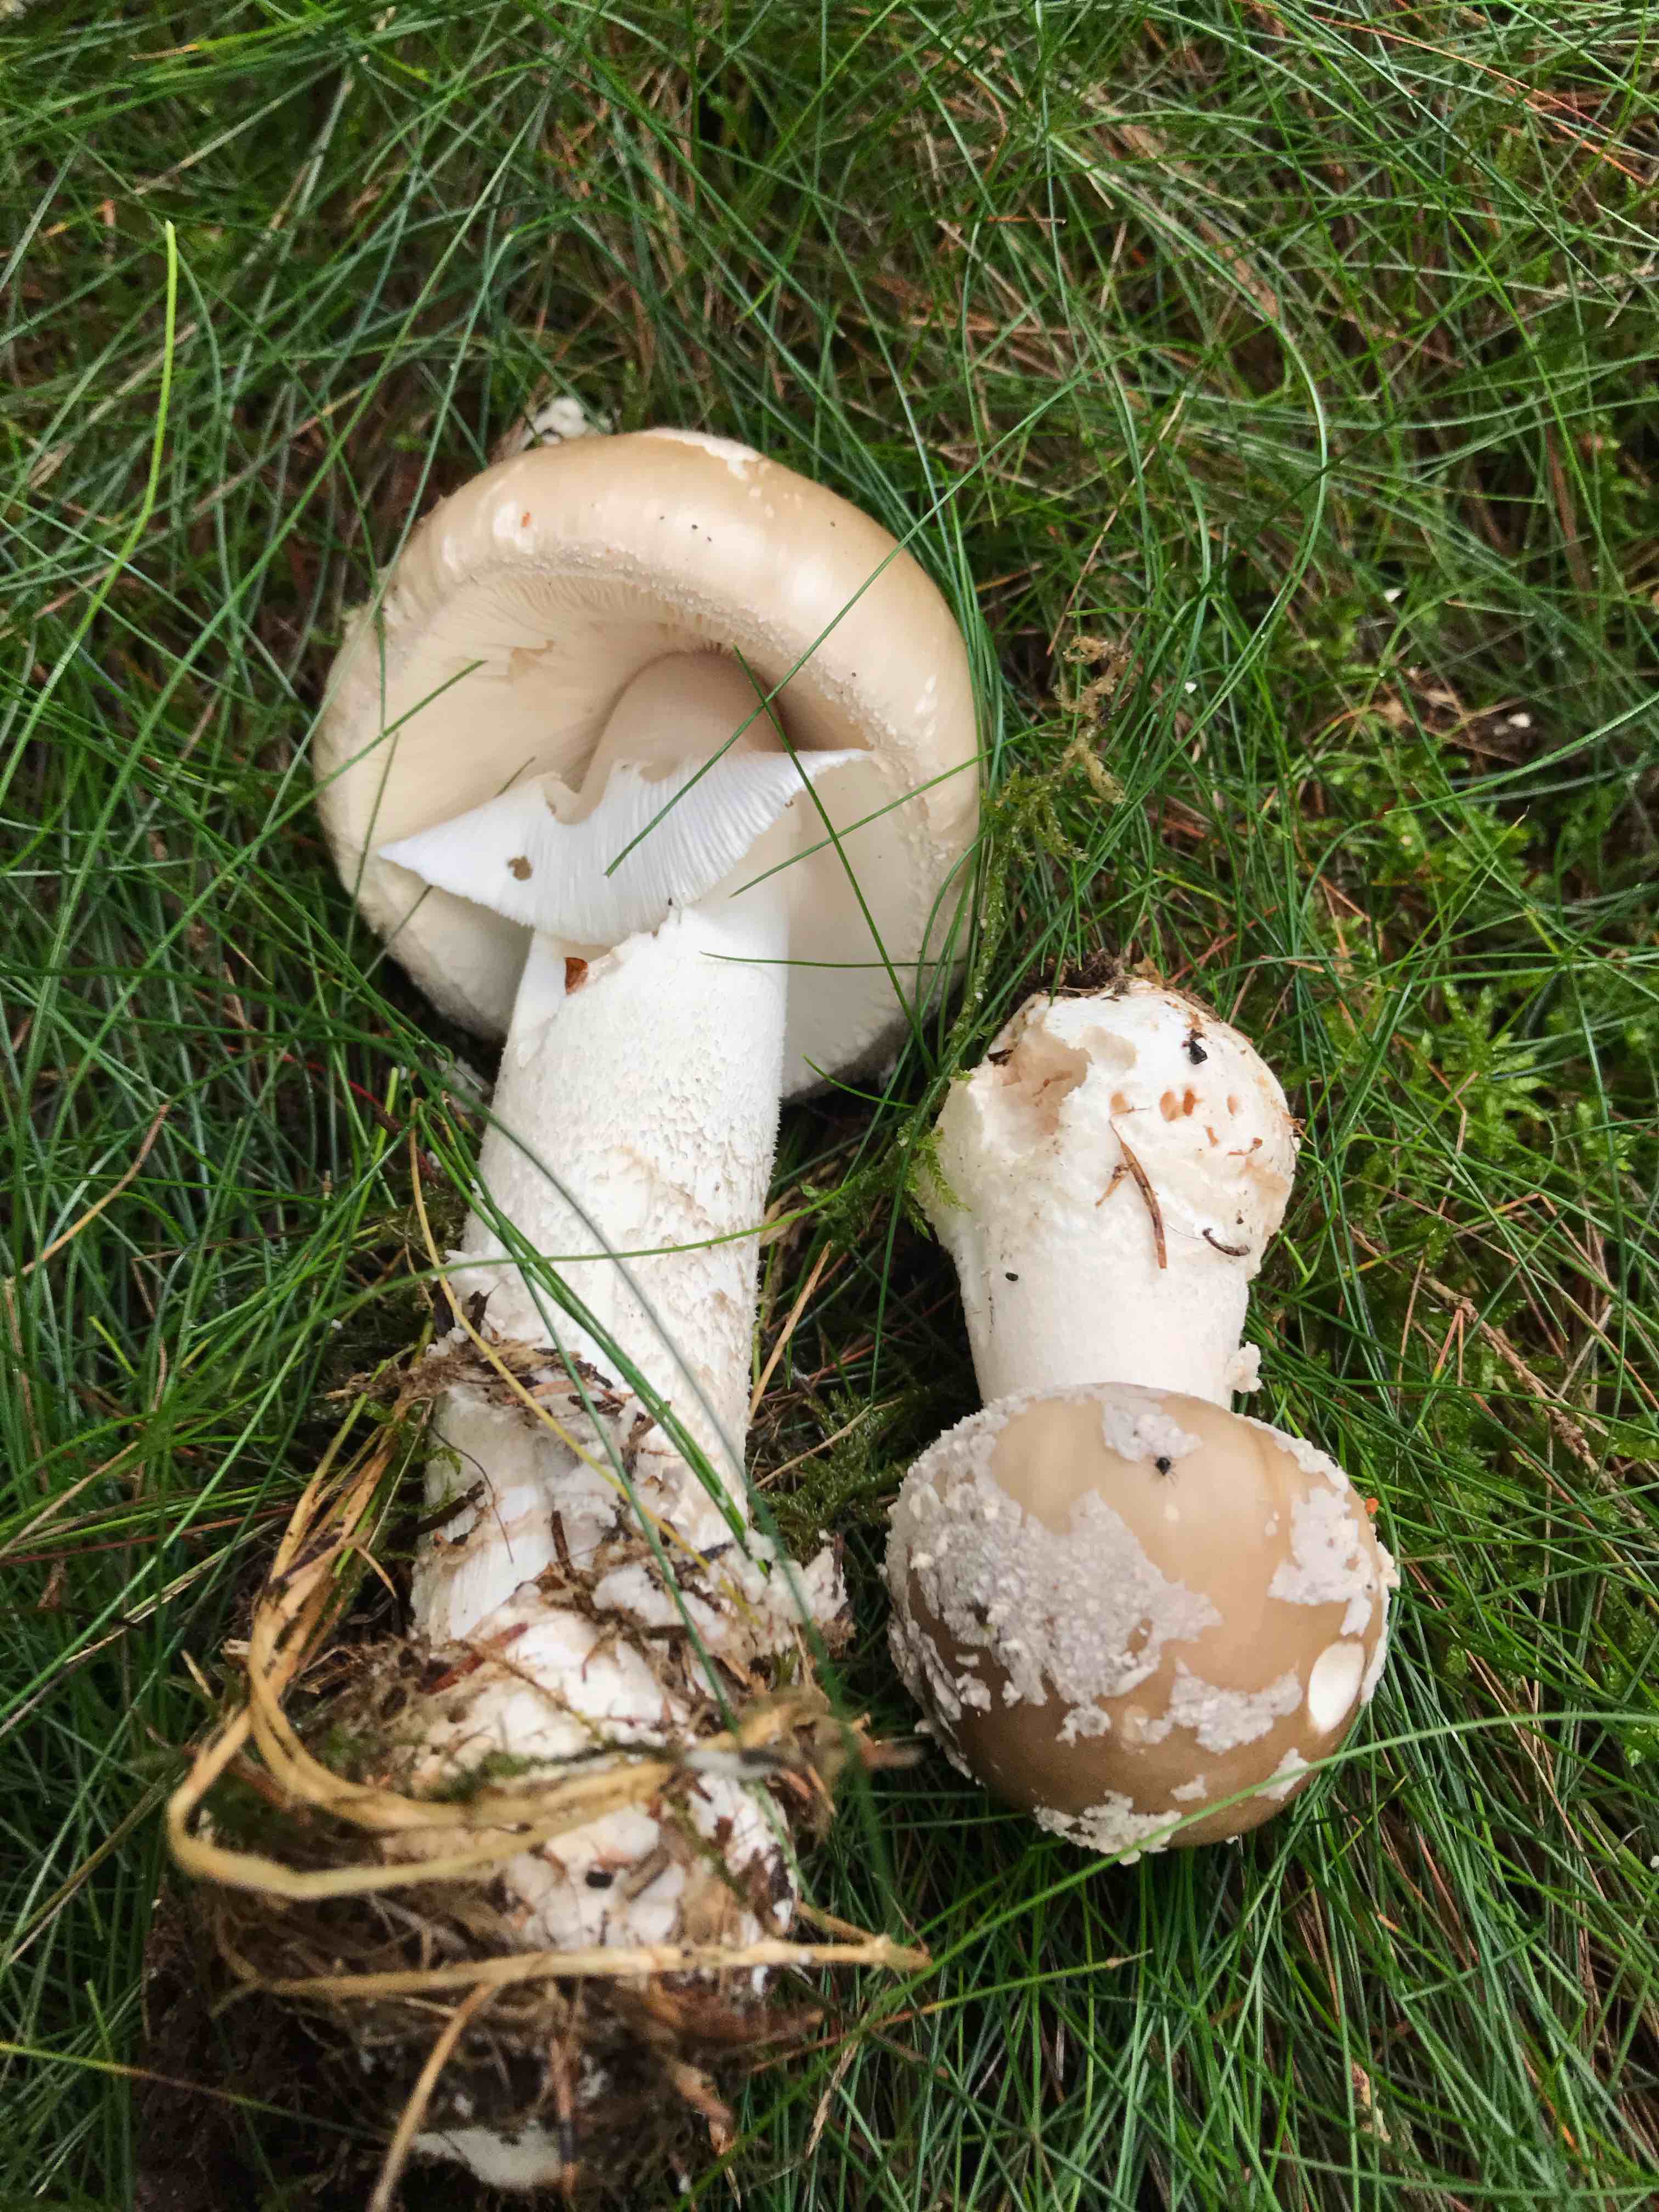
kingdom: Fungi
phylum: Basidiomycota
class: Agaricomycetes
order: Agaricales
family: Amanitaceae
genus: Amanita
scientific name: Amanita
